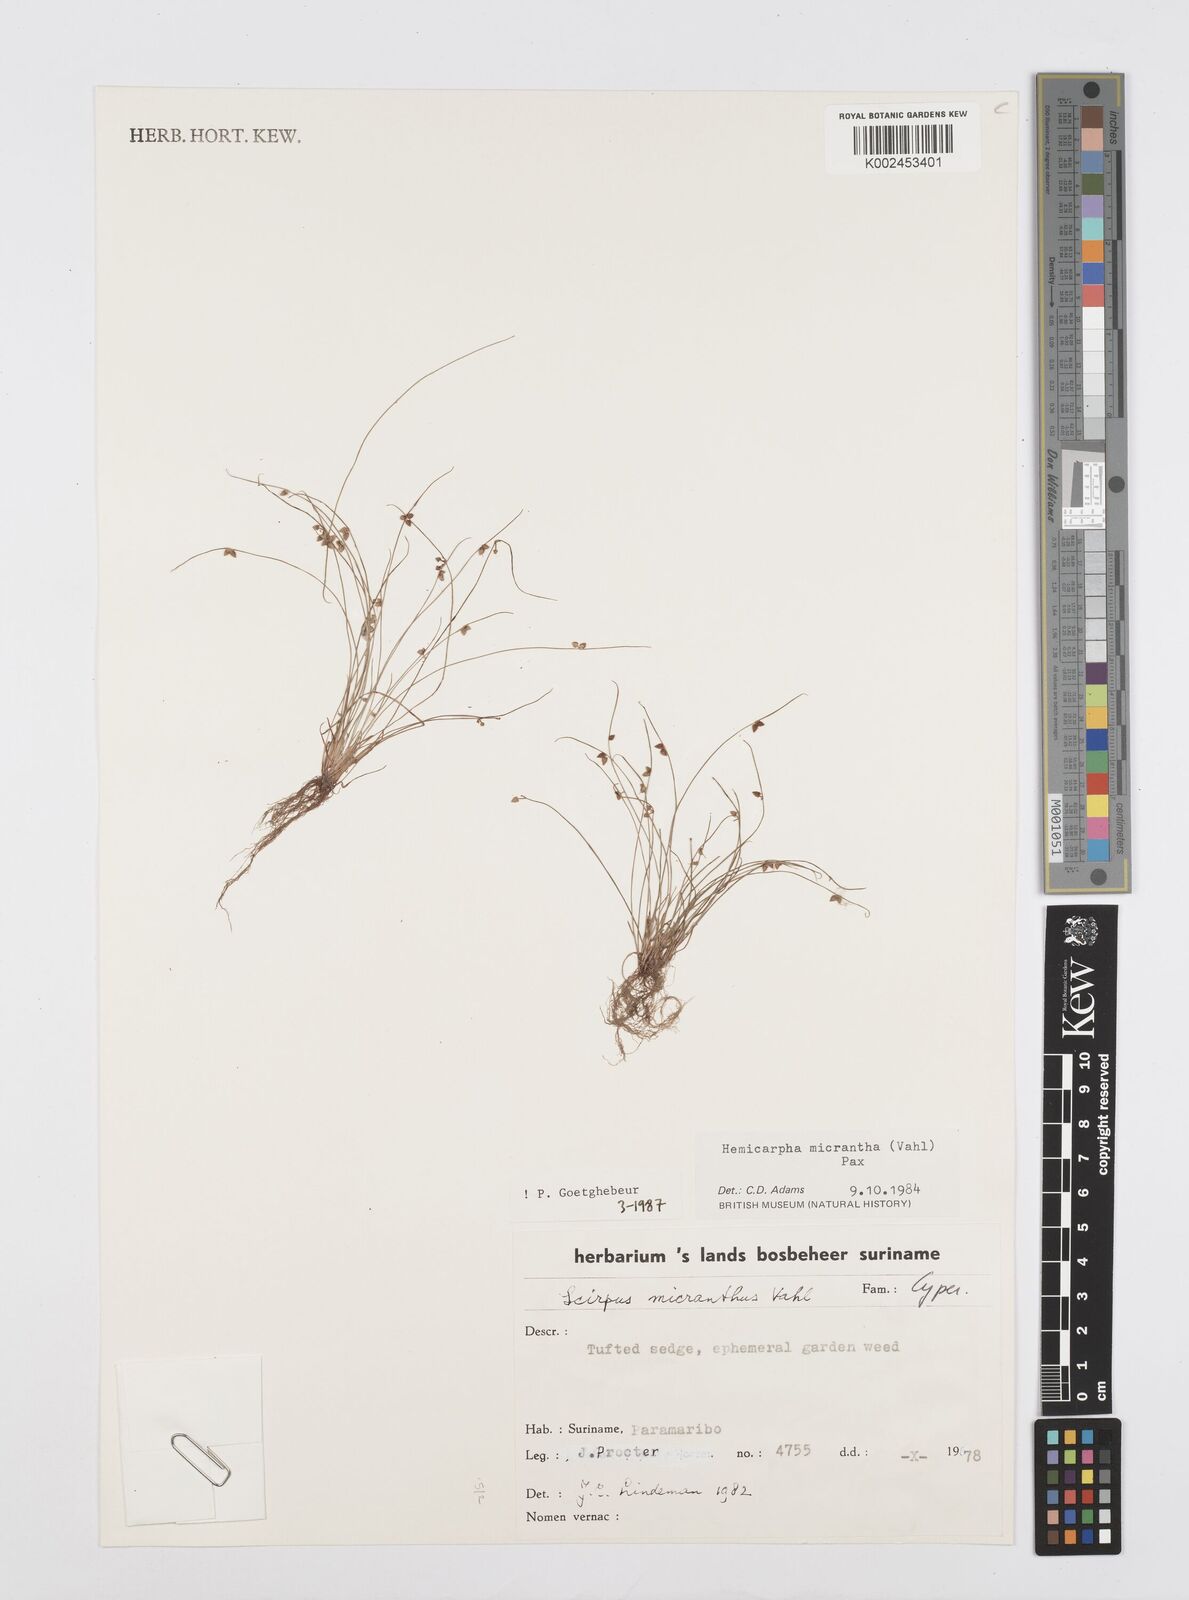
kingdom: Plantae
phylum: Tracheophyta
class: Liliopsida
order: Poales
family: Cyperaceae
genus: Cyperus
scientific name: Cyperus dentatus
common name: Dentate umbrella sedge
